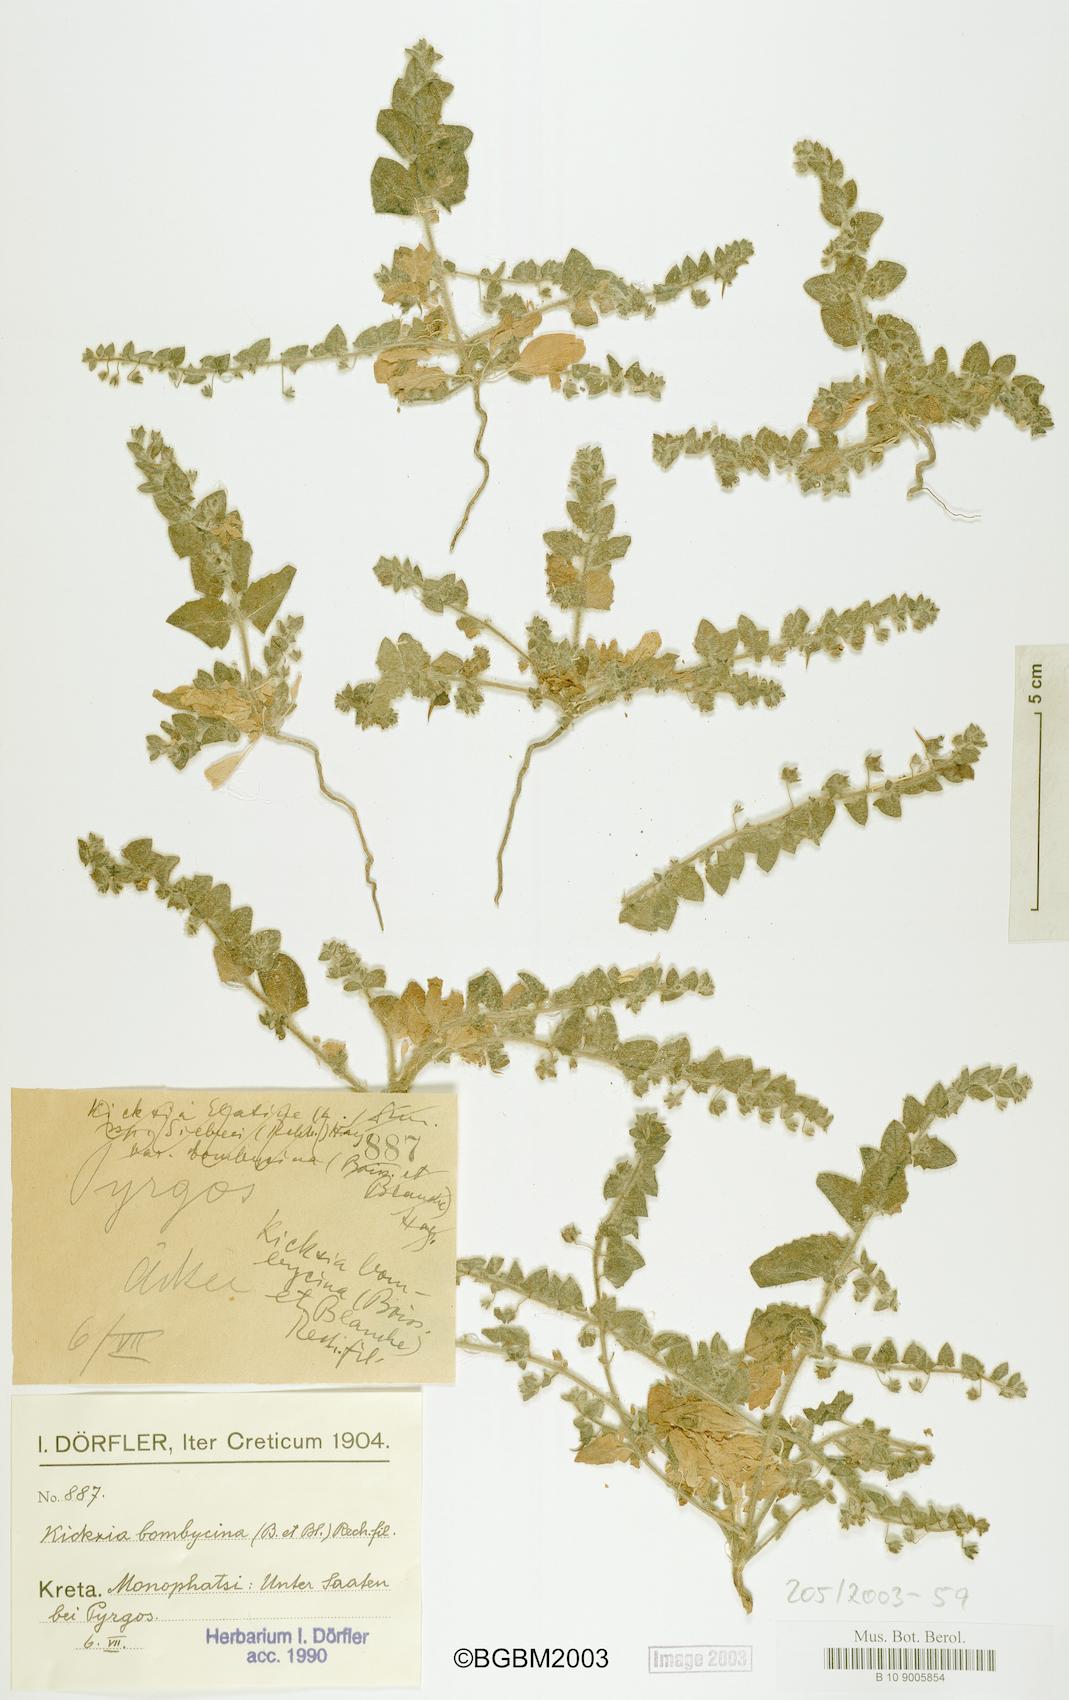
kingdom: Plantae
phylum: Tracheophyta
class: Magnoliopsida
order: Lamiales
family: Plantaginaceae
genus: Kickxia
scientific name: Kickxia elatine
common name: Sharp-leaved fluellen
